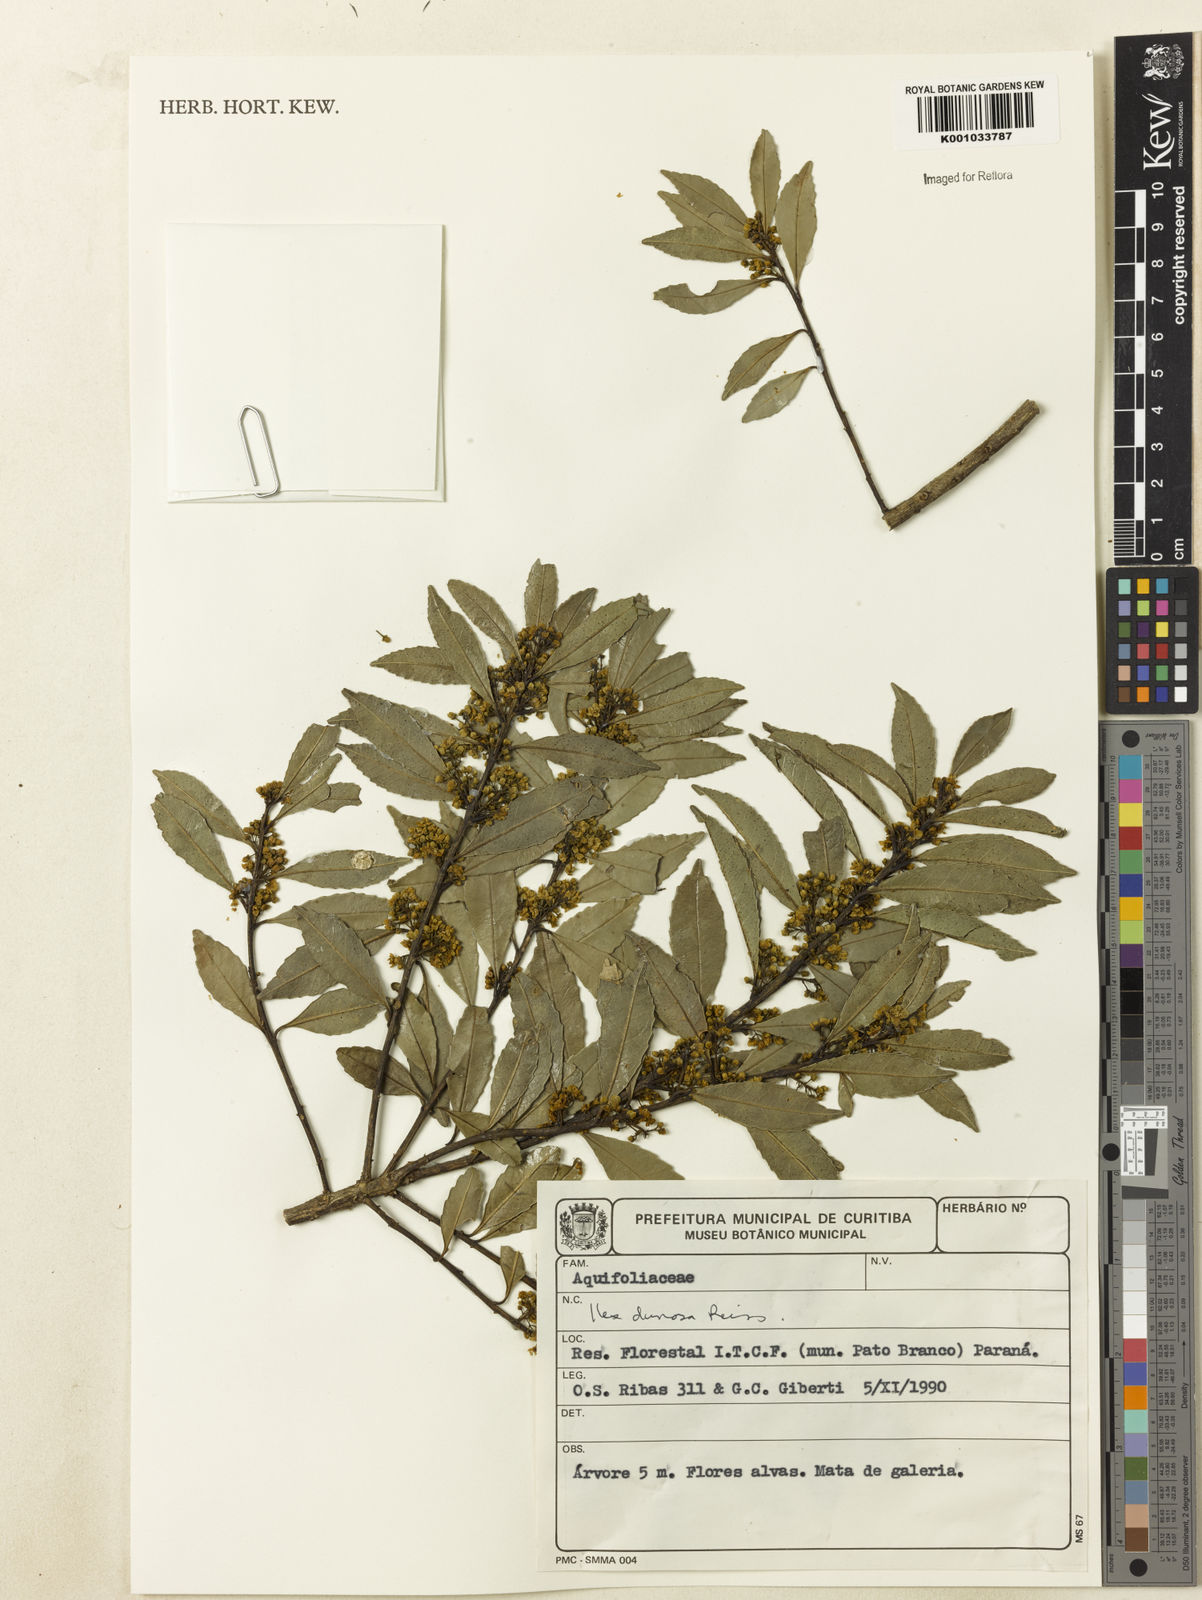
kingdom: Plantae
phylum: Tracheophyta
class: Magnoliopsida
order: Aquifoliales
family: Aquifoliaceae
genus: Ilex
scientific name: Ilex dumosa
